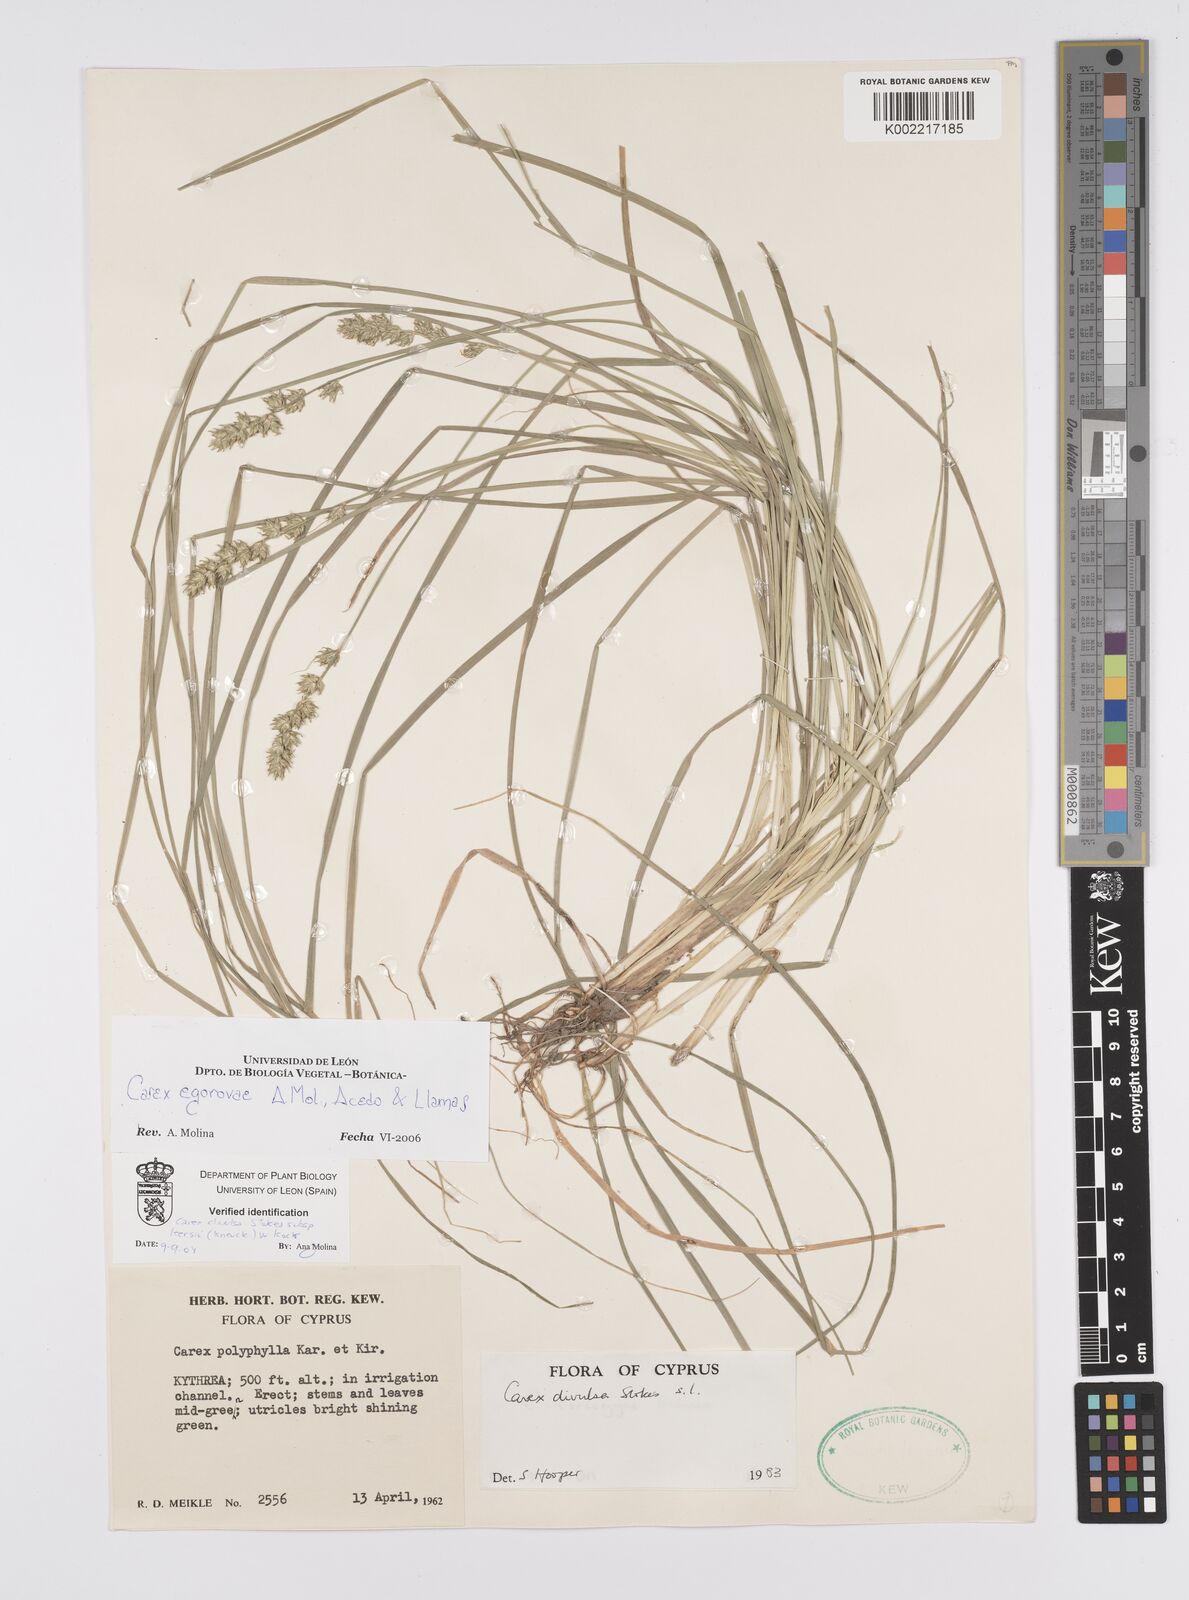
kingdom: Plantae
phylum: Tracheophyta
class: Liliopsida
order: Poales
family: Cyperaceae
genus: Carex
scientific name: Carex egorovae
